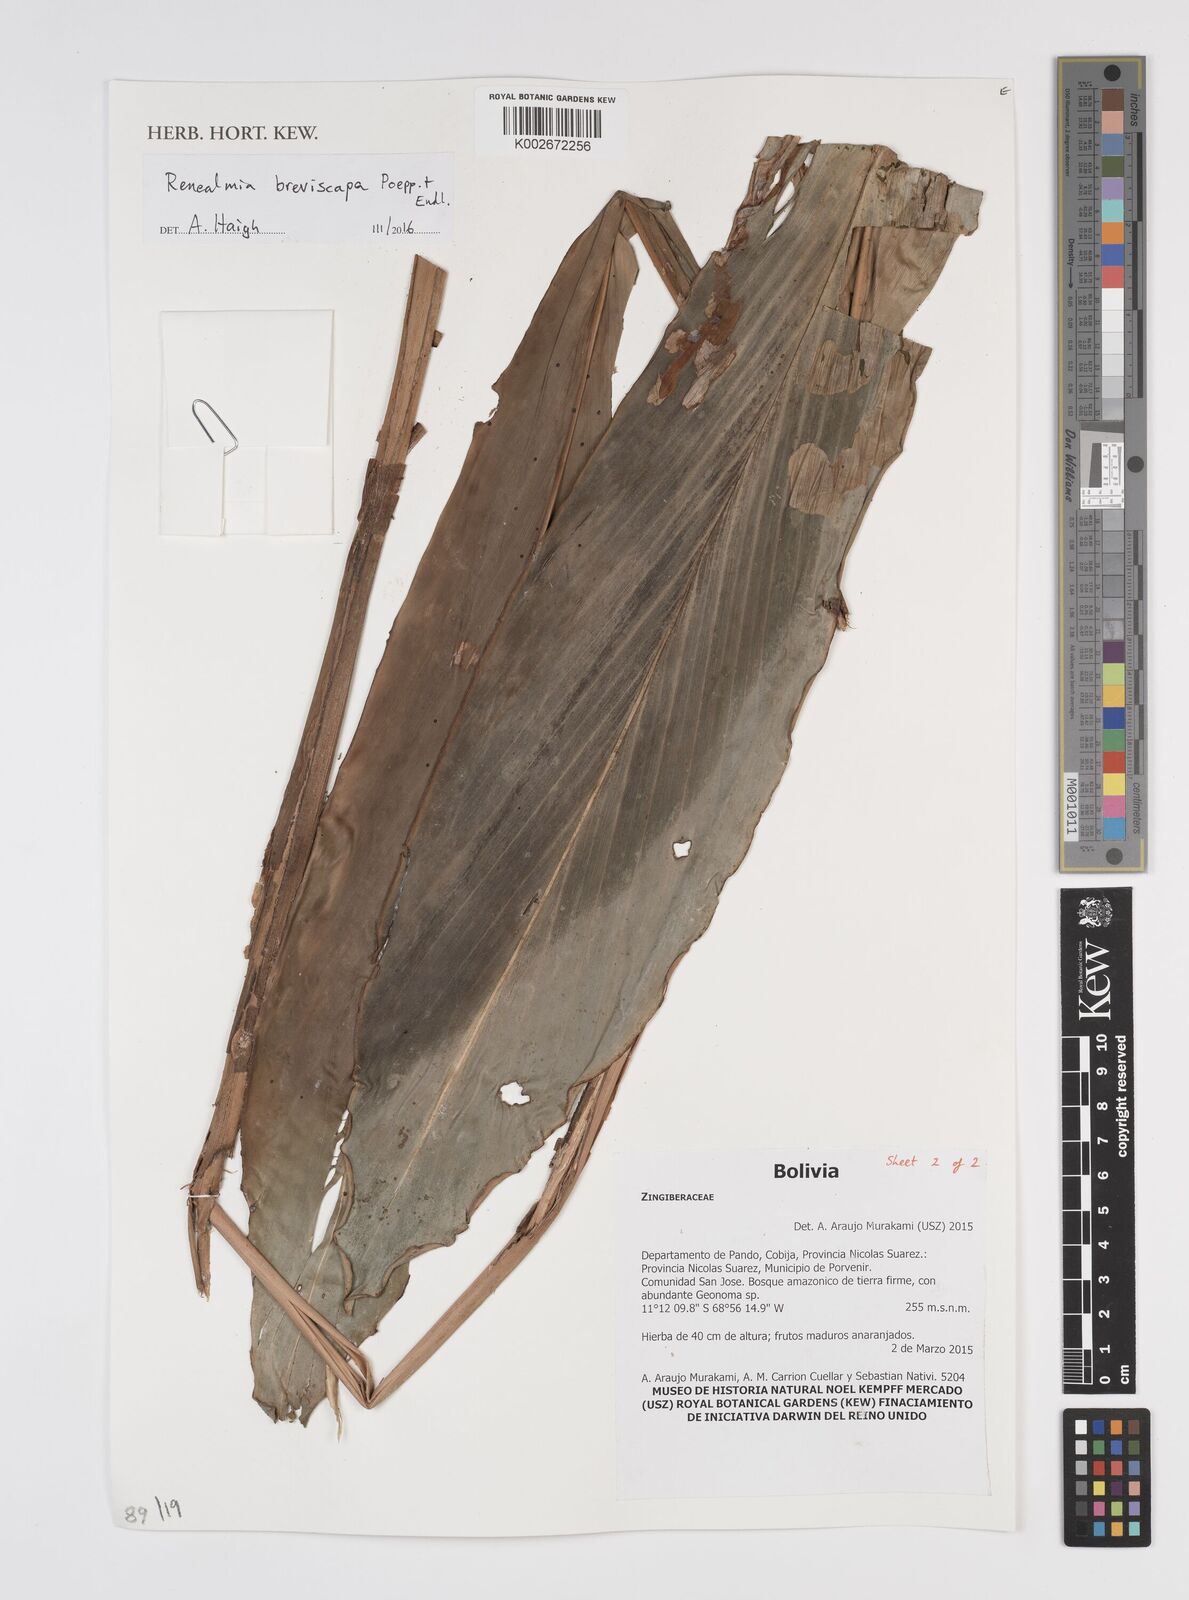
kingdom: Plantae
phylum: Tracheophyta
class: Liliopsida
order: Zingiberales
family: Zingiberaceae
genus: Renealmia
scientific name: Renealmia breviscapa
